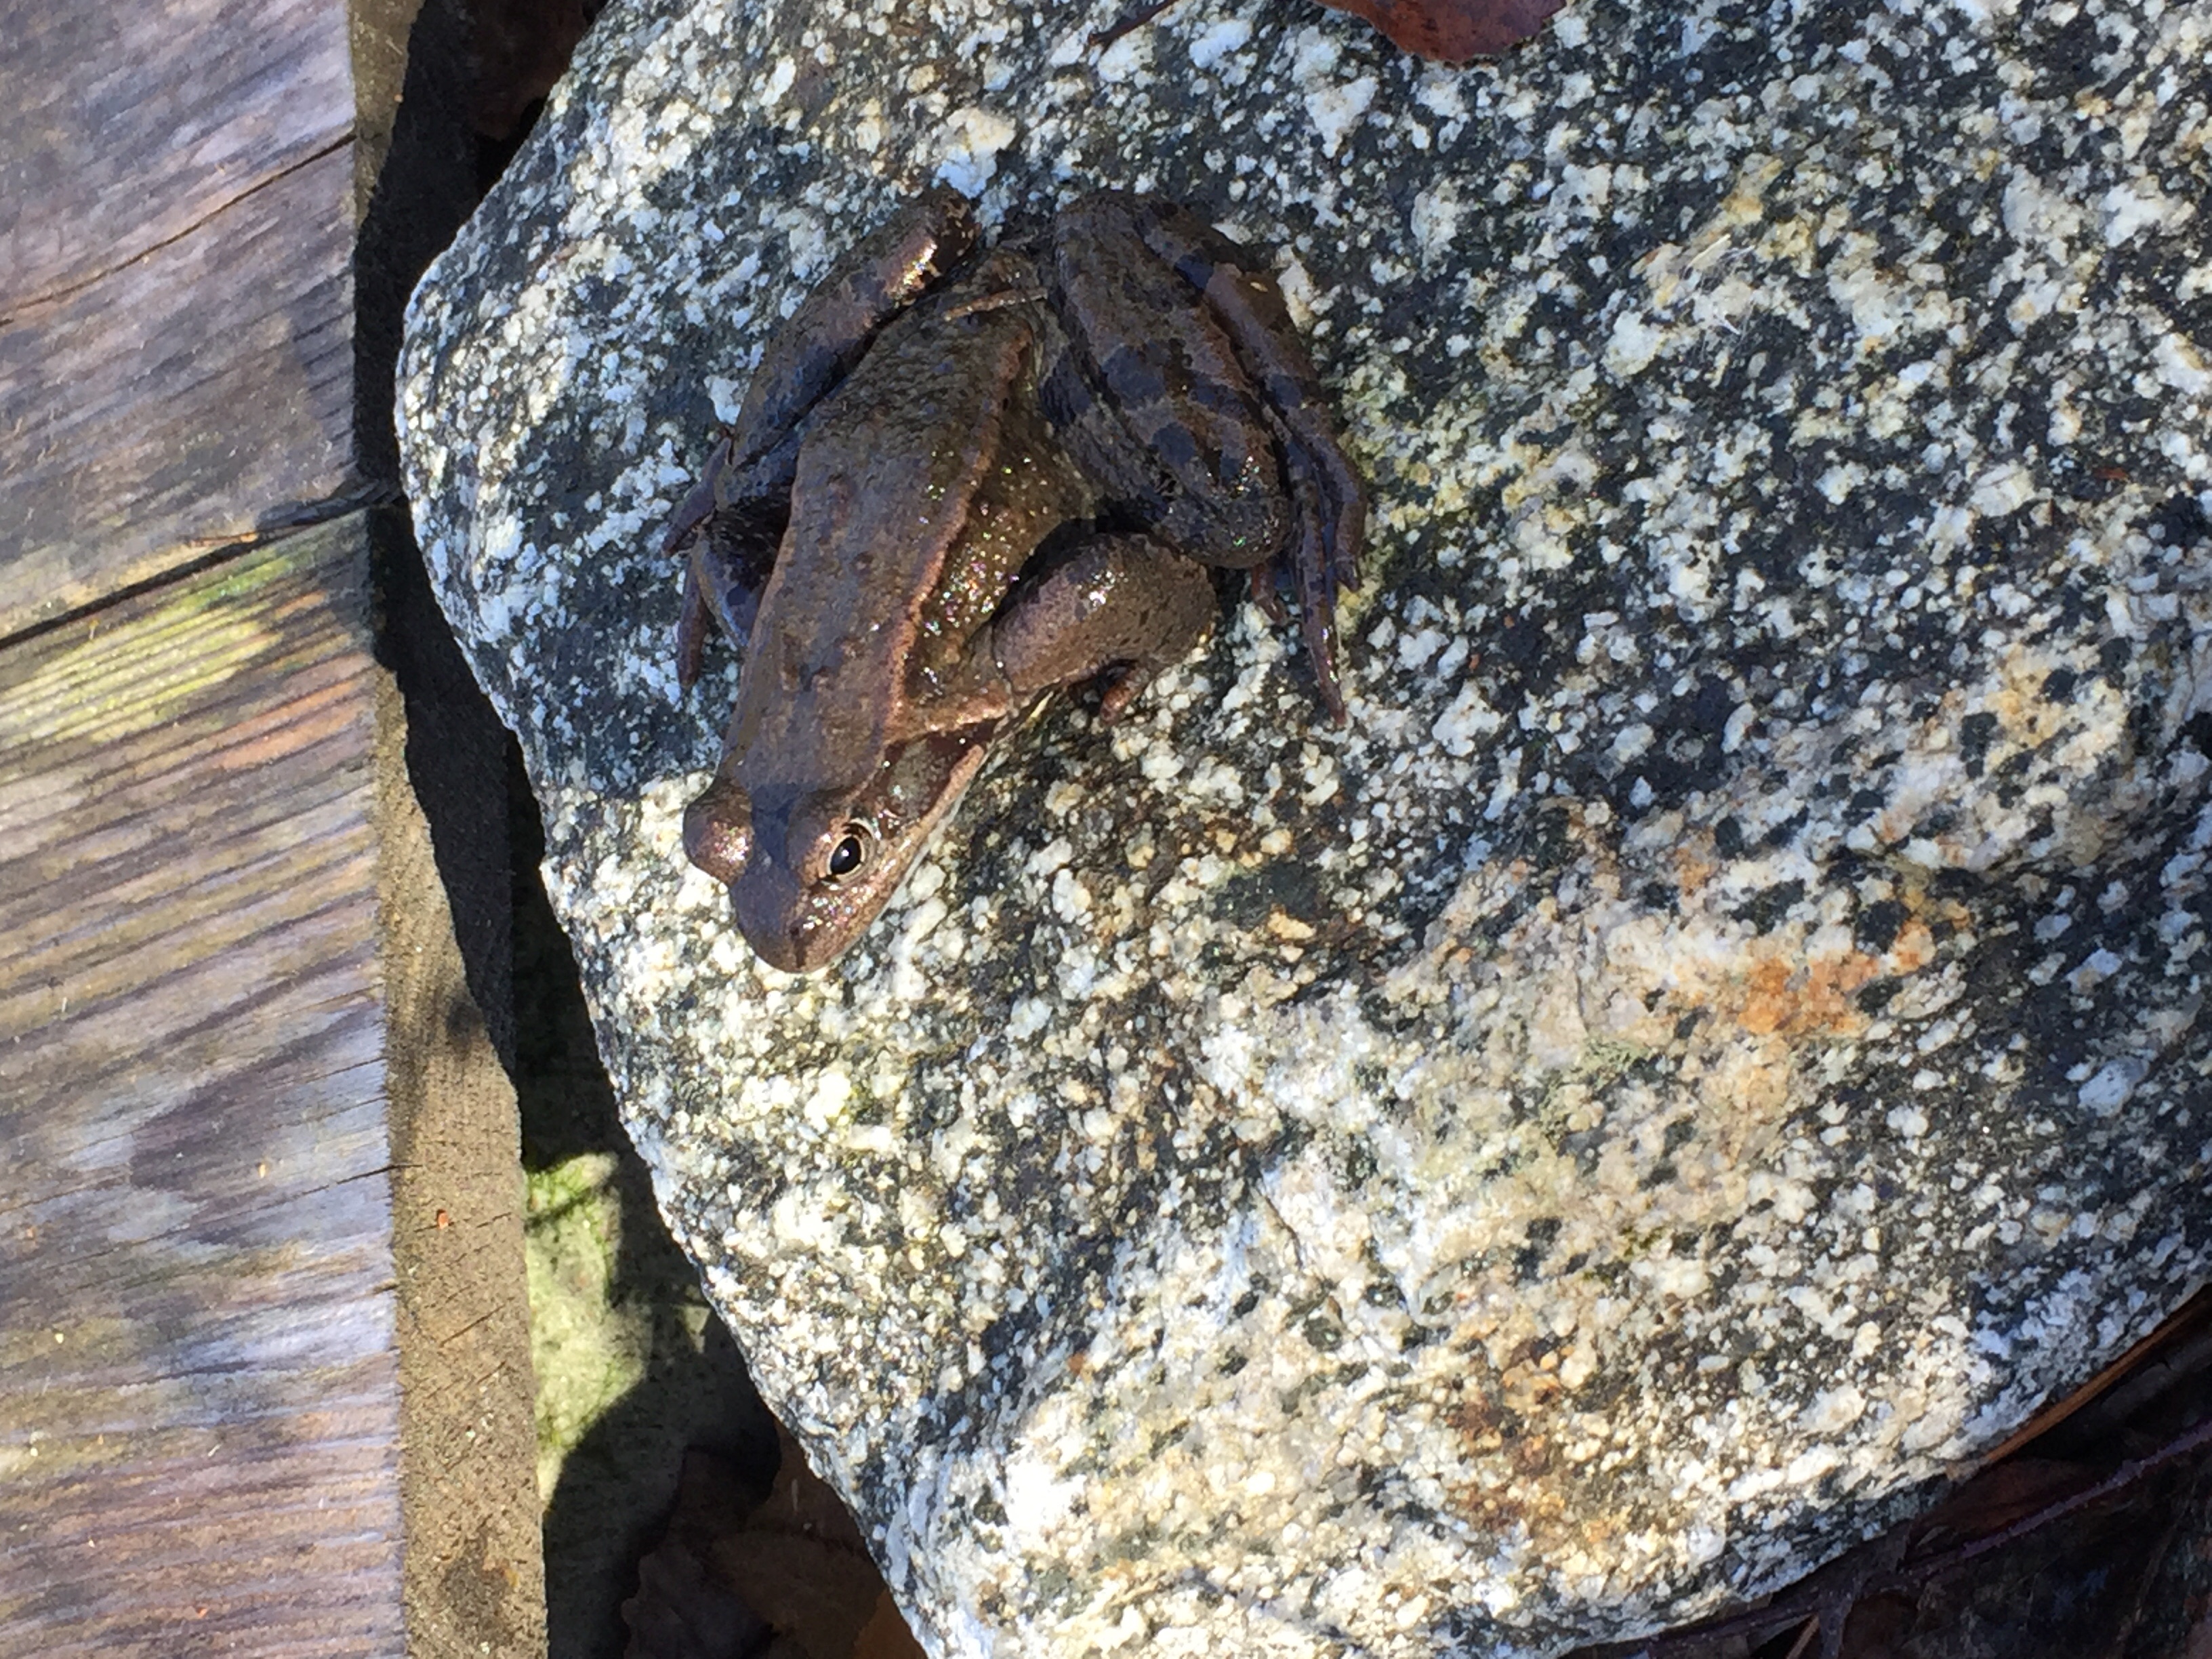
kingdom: Animalia
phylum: Chordata
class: Amphibia
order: Anura
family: Ranidae
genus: Rana
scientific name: Rana temporaria
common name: Common frog
